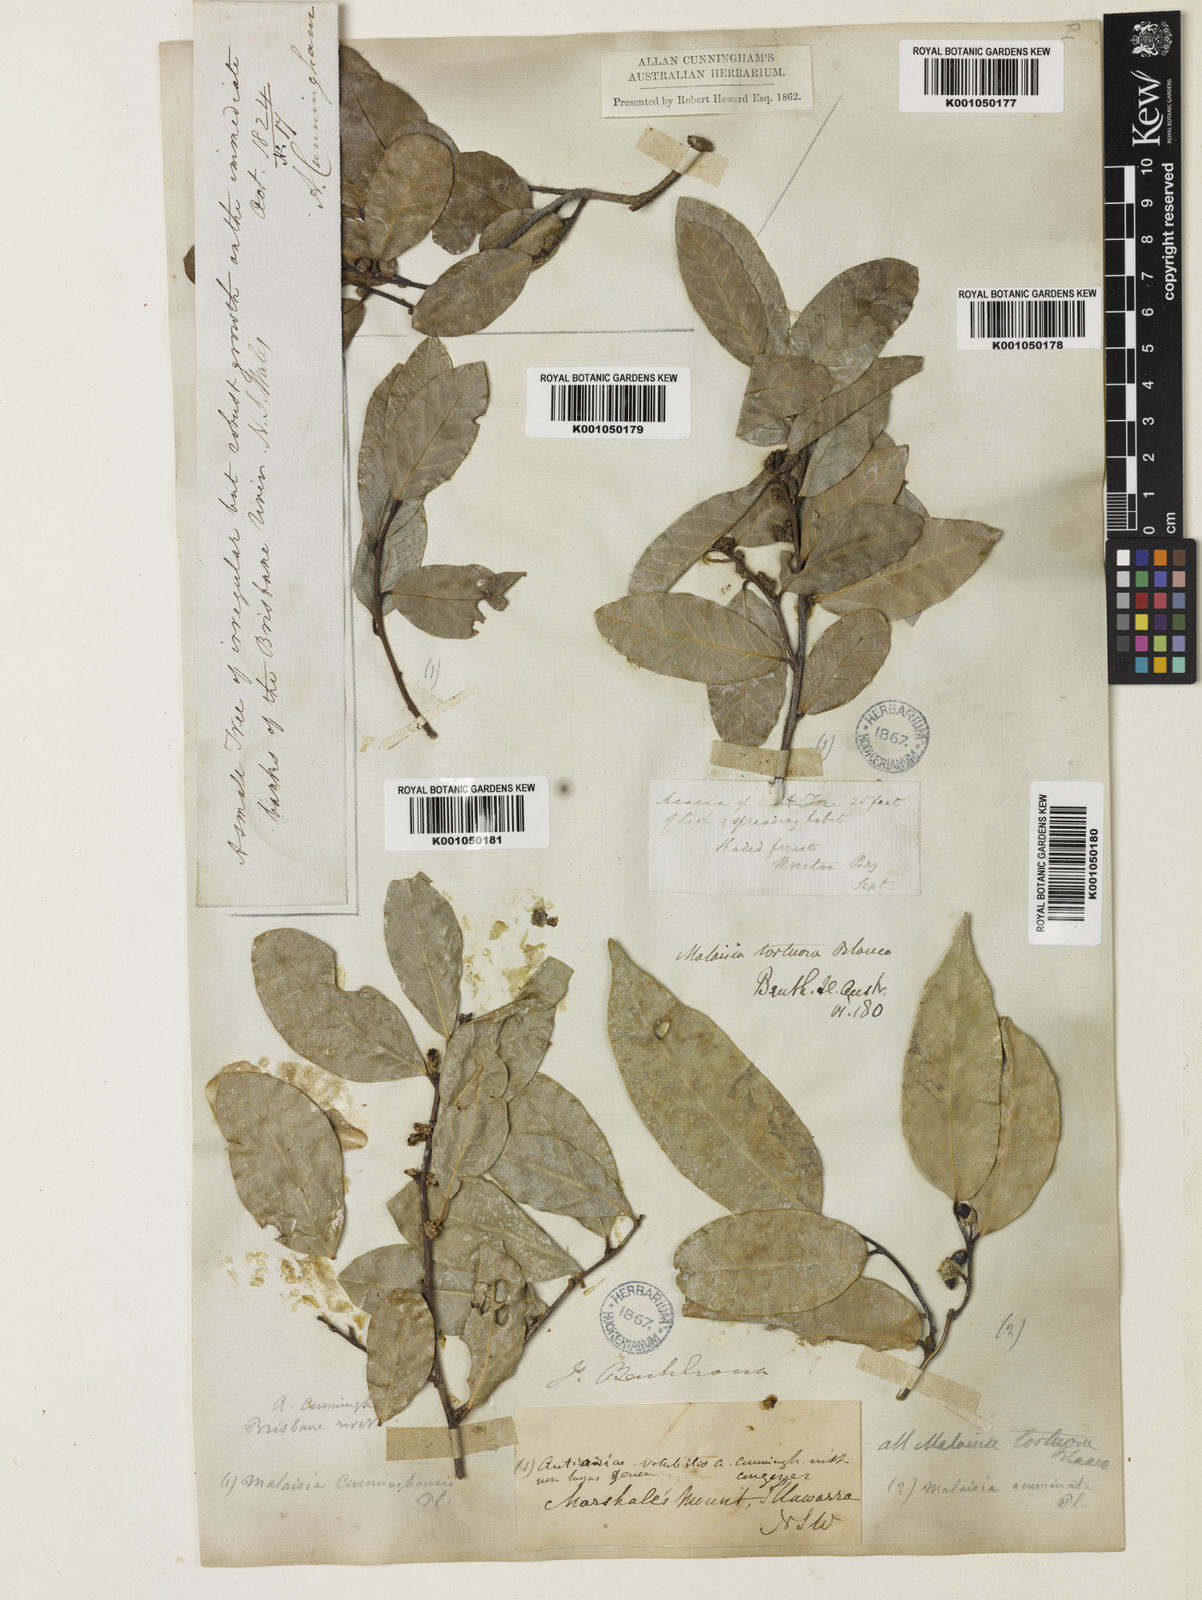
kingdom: Plantae
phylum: Tracheophyta
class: Magnoliopsida
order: Rosales
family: Moraceae
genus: Malaisia
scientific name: Malaisia scandens
